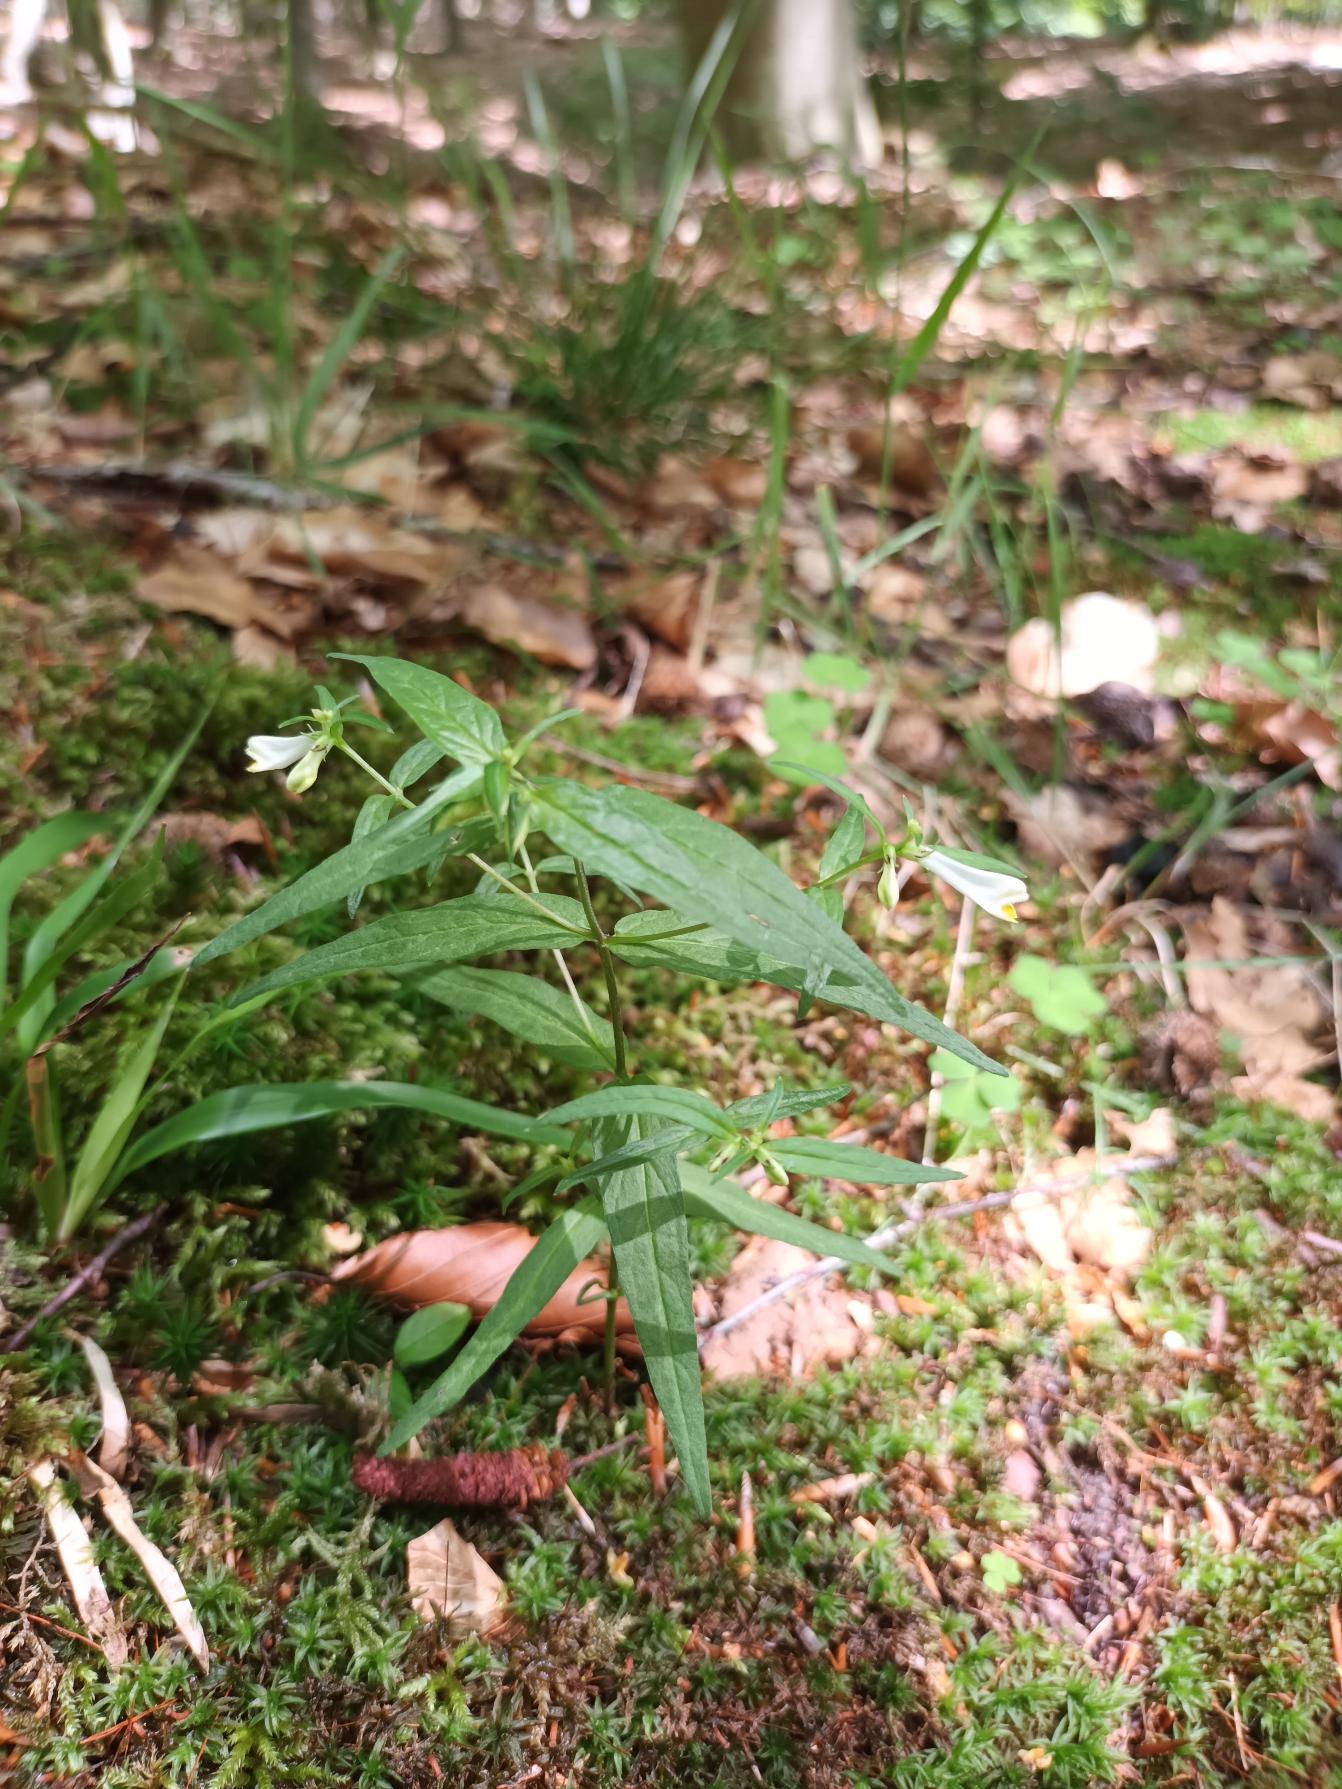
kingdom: Plantae
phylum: Tracheophyta
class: Magnoliopsida
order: Lamiales
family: Orobanchaceae
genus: Melampyrum
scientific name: Melampyrum pratense
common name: Almindelig kohvede
